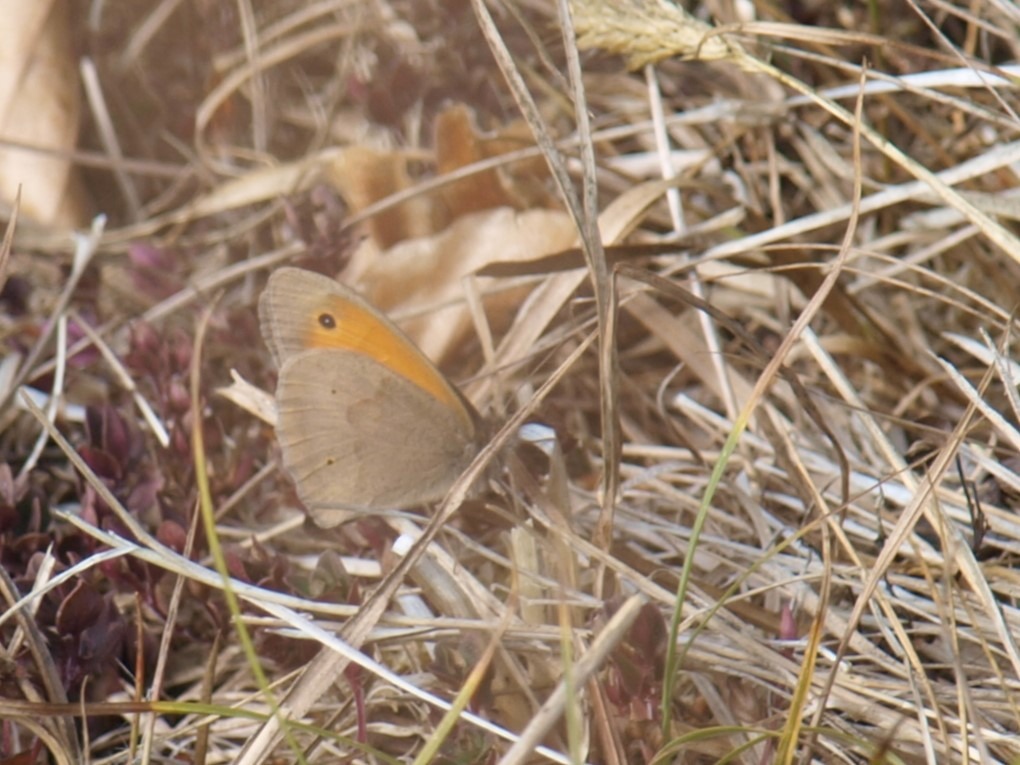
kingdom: Animalia
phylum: Arthropoda
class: Insecta
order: Lepidoptera
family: Nymphalidae
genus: Maniola
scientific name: Maniola jurtina
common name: Græsrandøje
